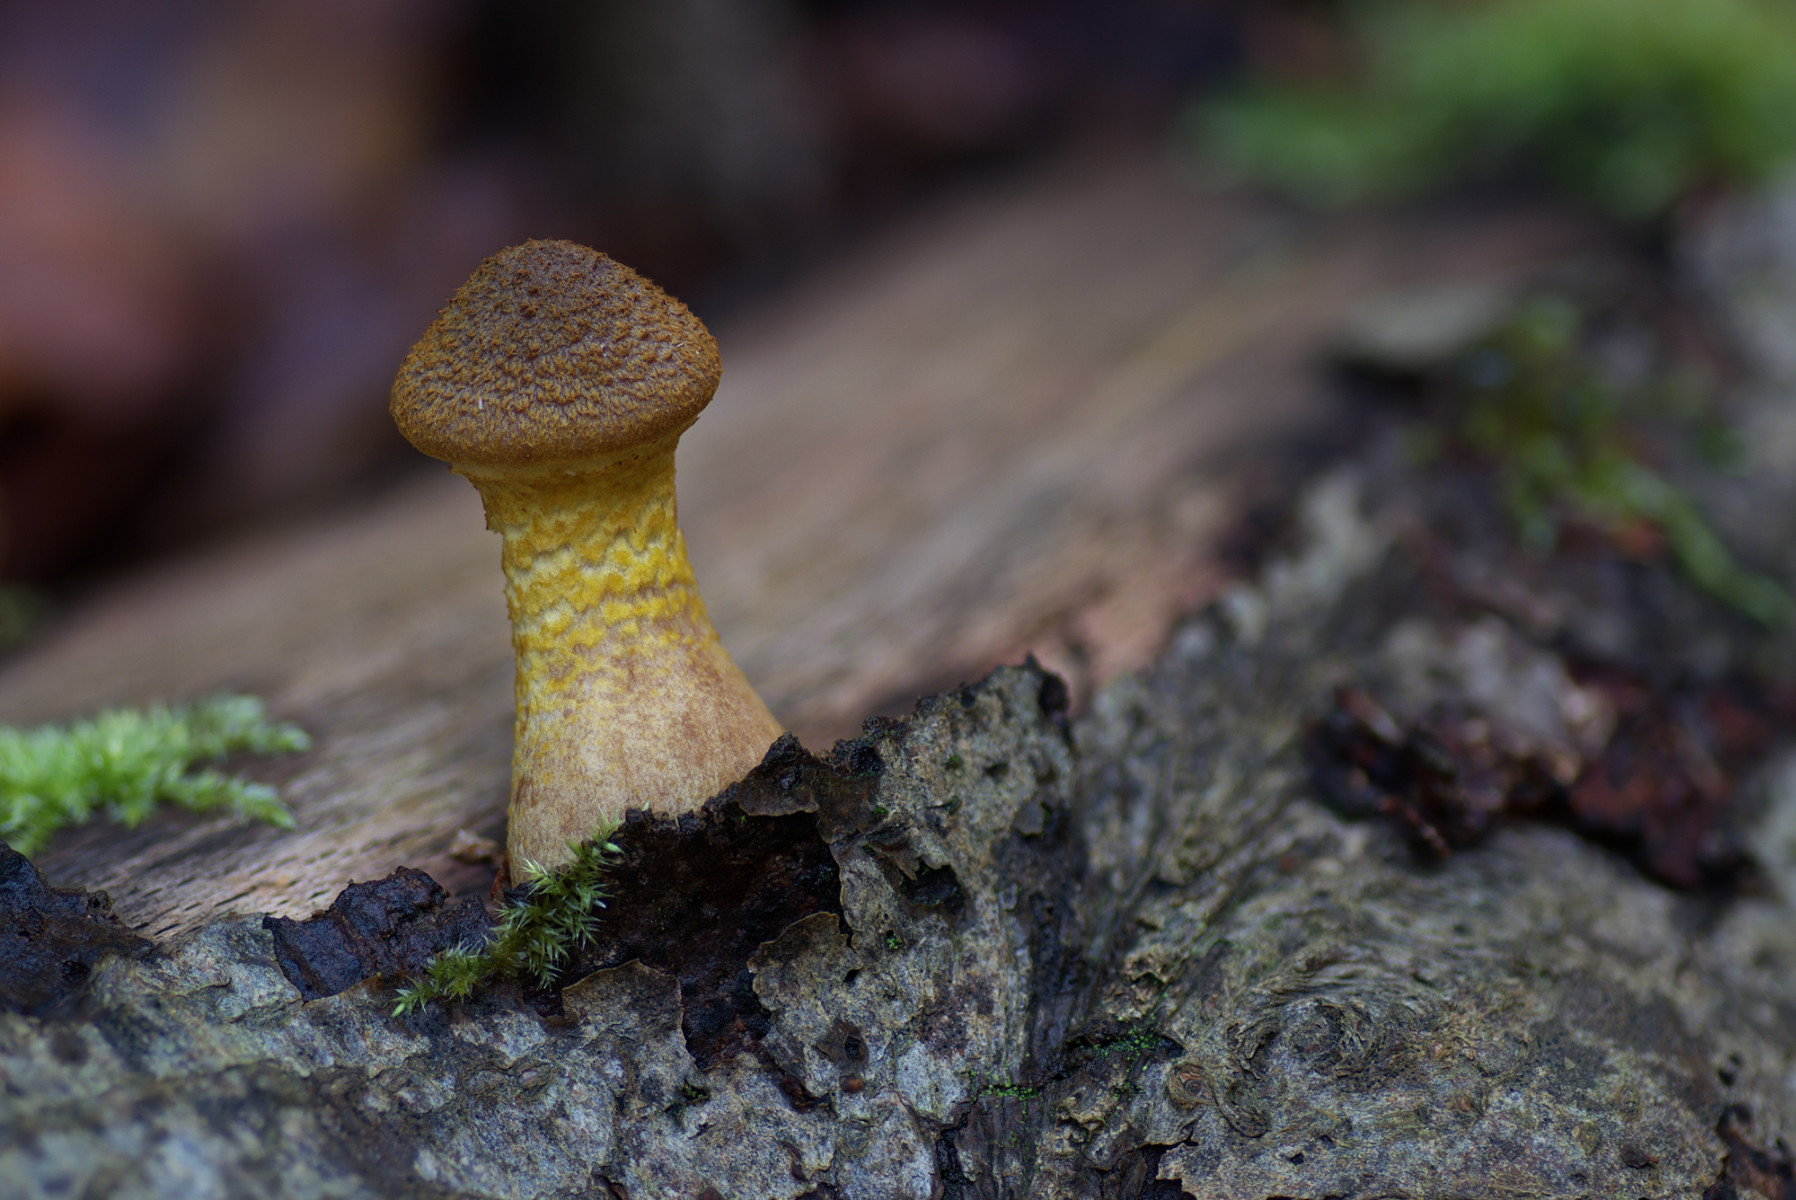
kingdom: Fungi
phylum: Basidiomycota
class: Agaricomycetes
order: Agaricales
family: Physalacriaceae
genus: Armillaria
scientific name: Armillaria lutea
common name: køllestokket honningsvamp
